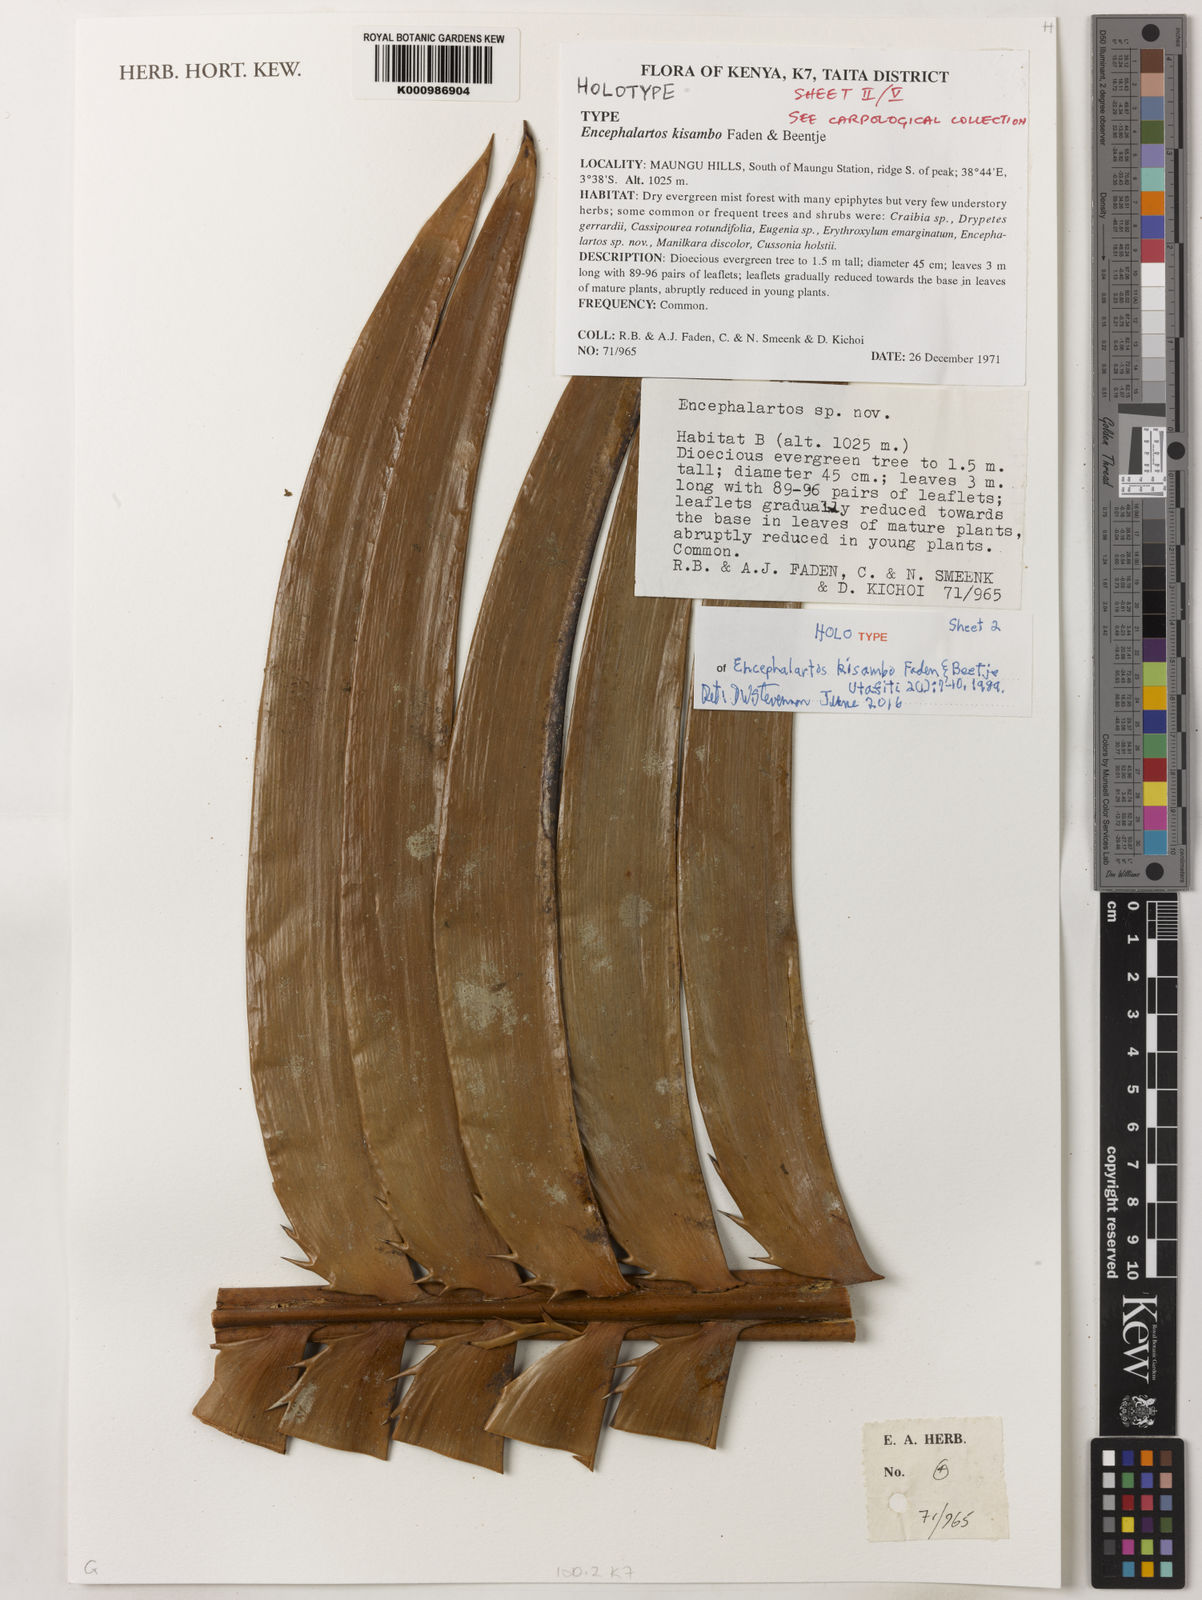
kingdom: Plantae
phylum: Tracheophyta
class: Cycadopsida
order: Cycadales
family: Zamiaceae
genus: Encephalartos
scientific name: Encephalartos kisambo
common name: Voi cycad
